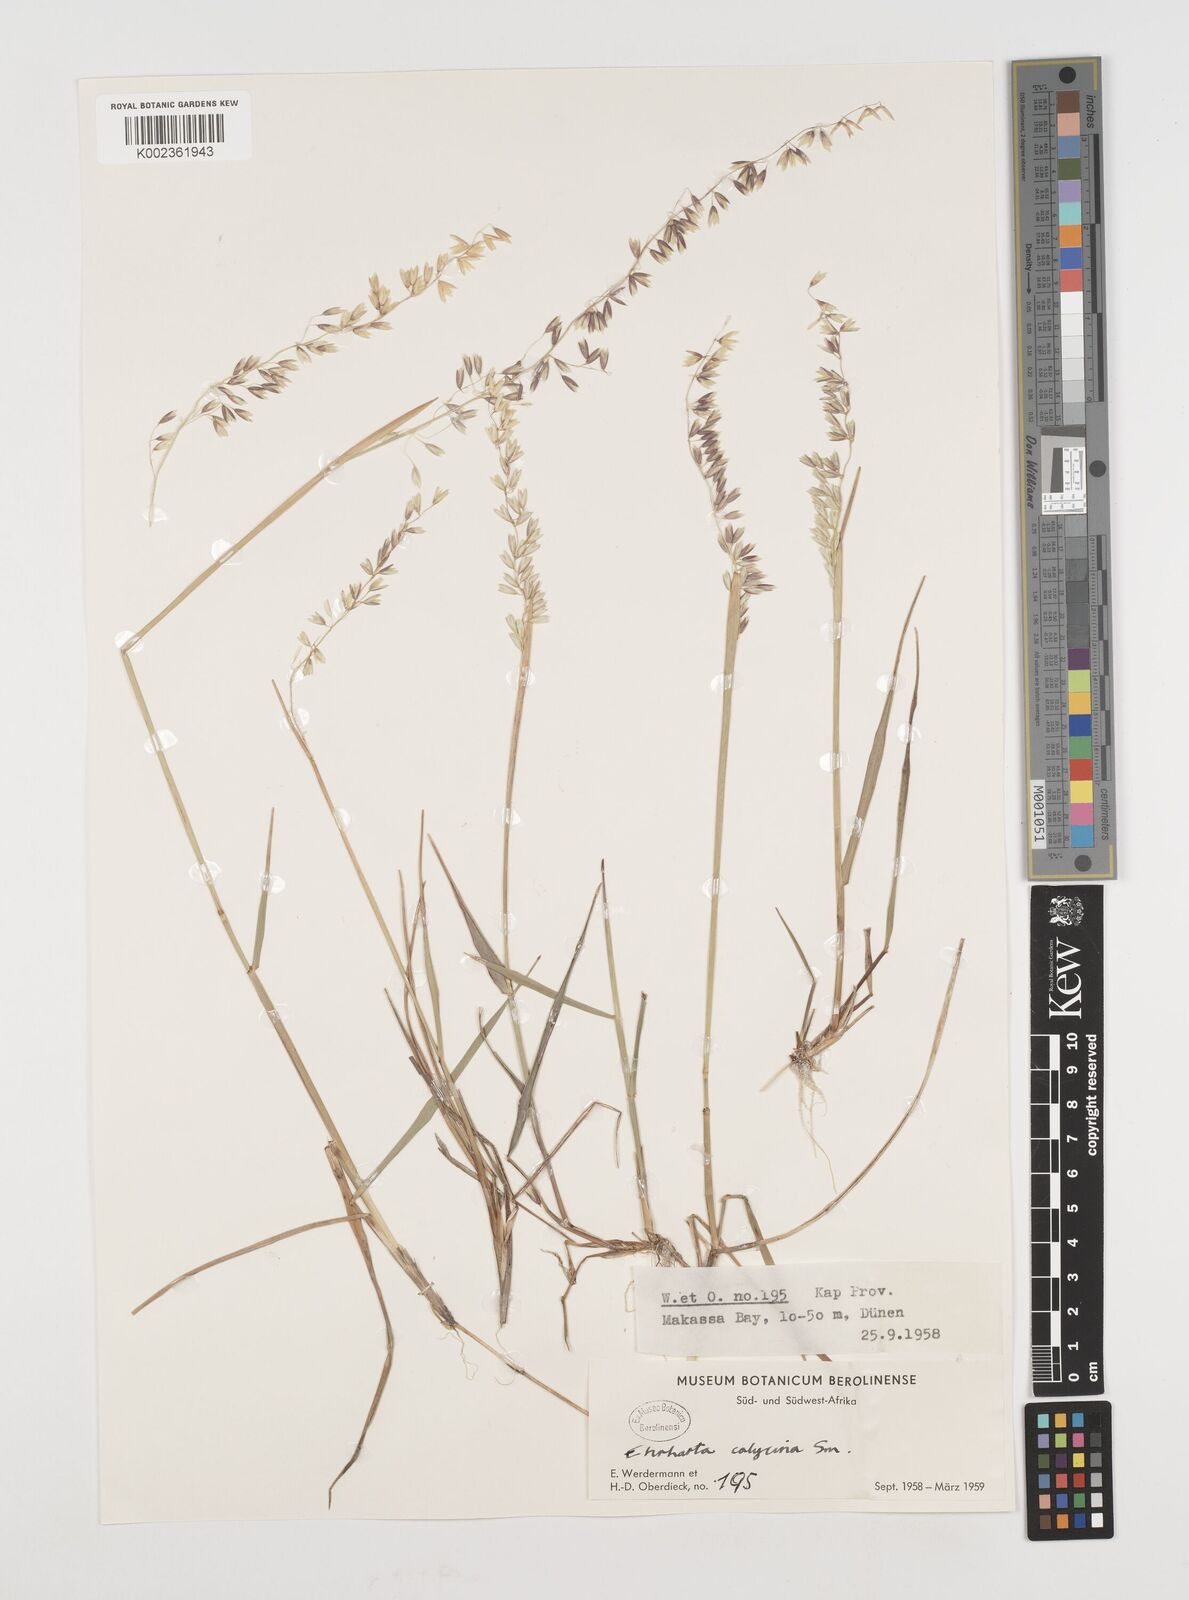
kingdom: Plantae
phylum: Tracheophyta
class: Liliopsida
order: Poales
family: Poaceae
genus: Ehrharta
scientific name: Ehrharta calycina
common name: Perennial veldtgrass
